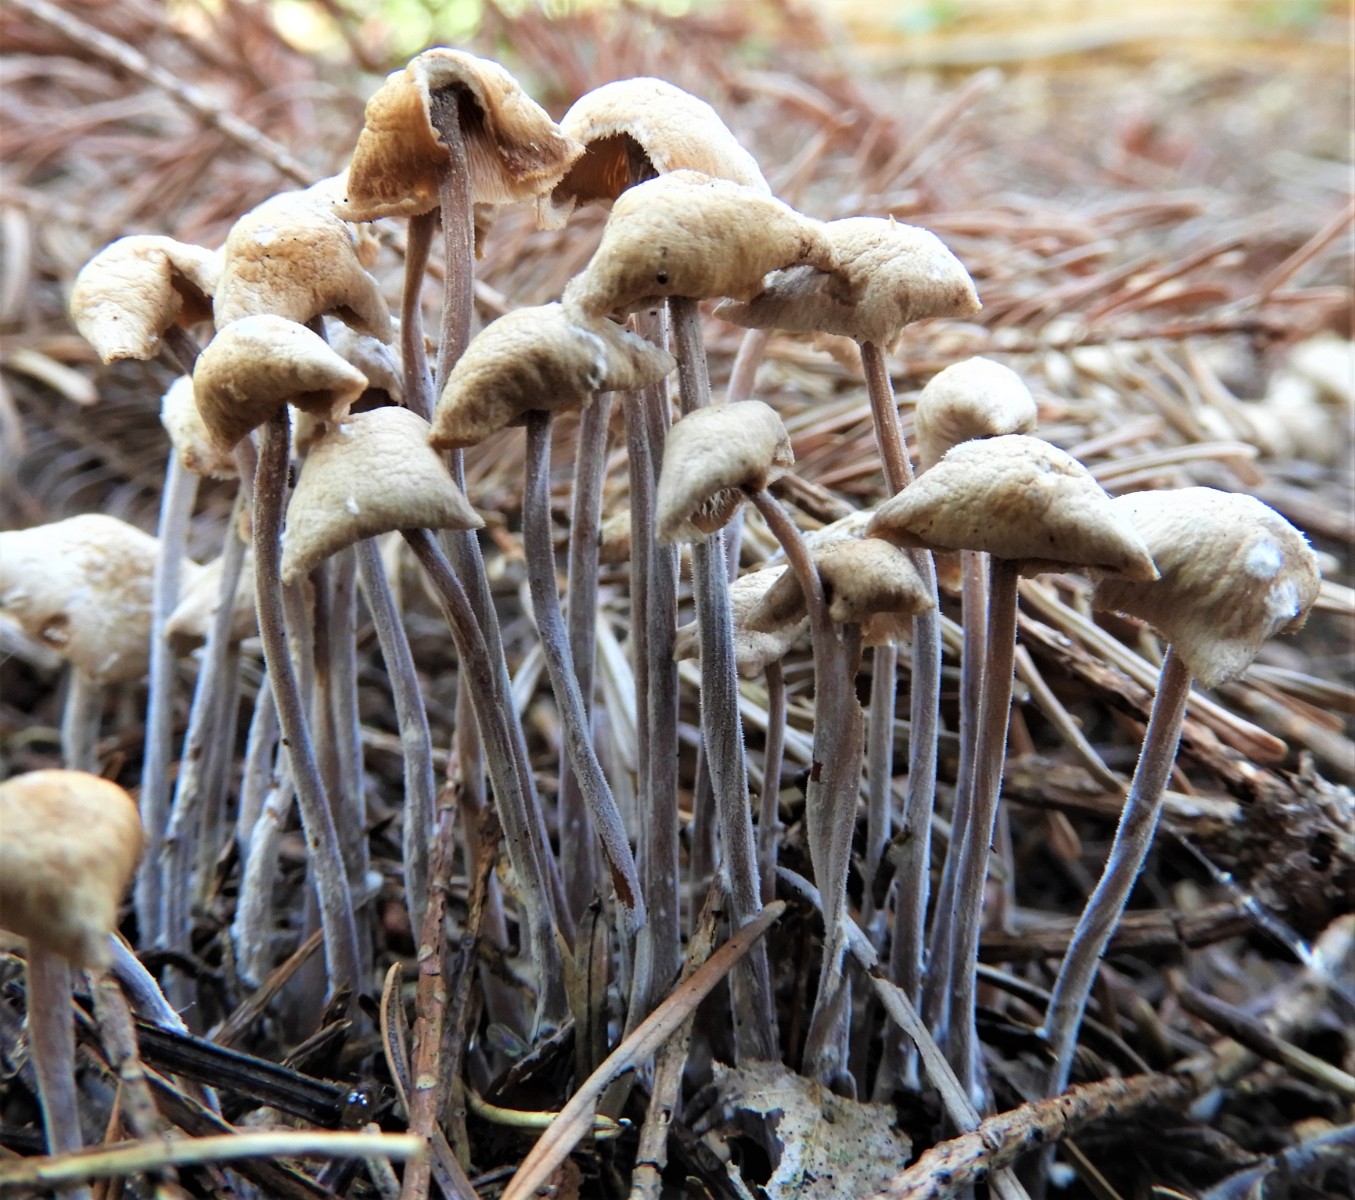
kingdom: Fungi
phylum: Basidiomycota
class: Agaricomycetes
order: Agaricales
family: Omphalotaceae
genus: Collybiopsis
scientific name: Collybiopsis confluens
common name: knippe-fladhat
